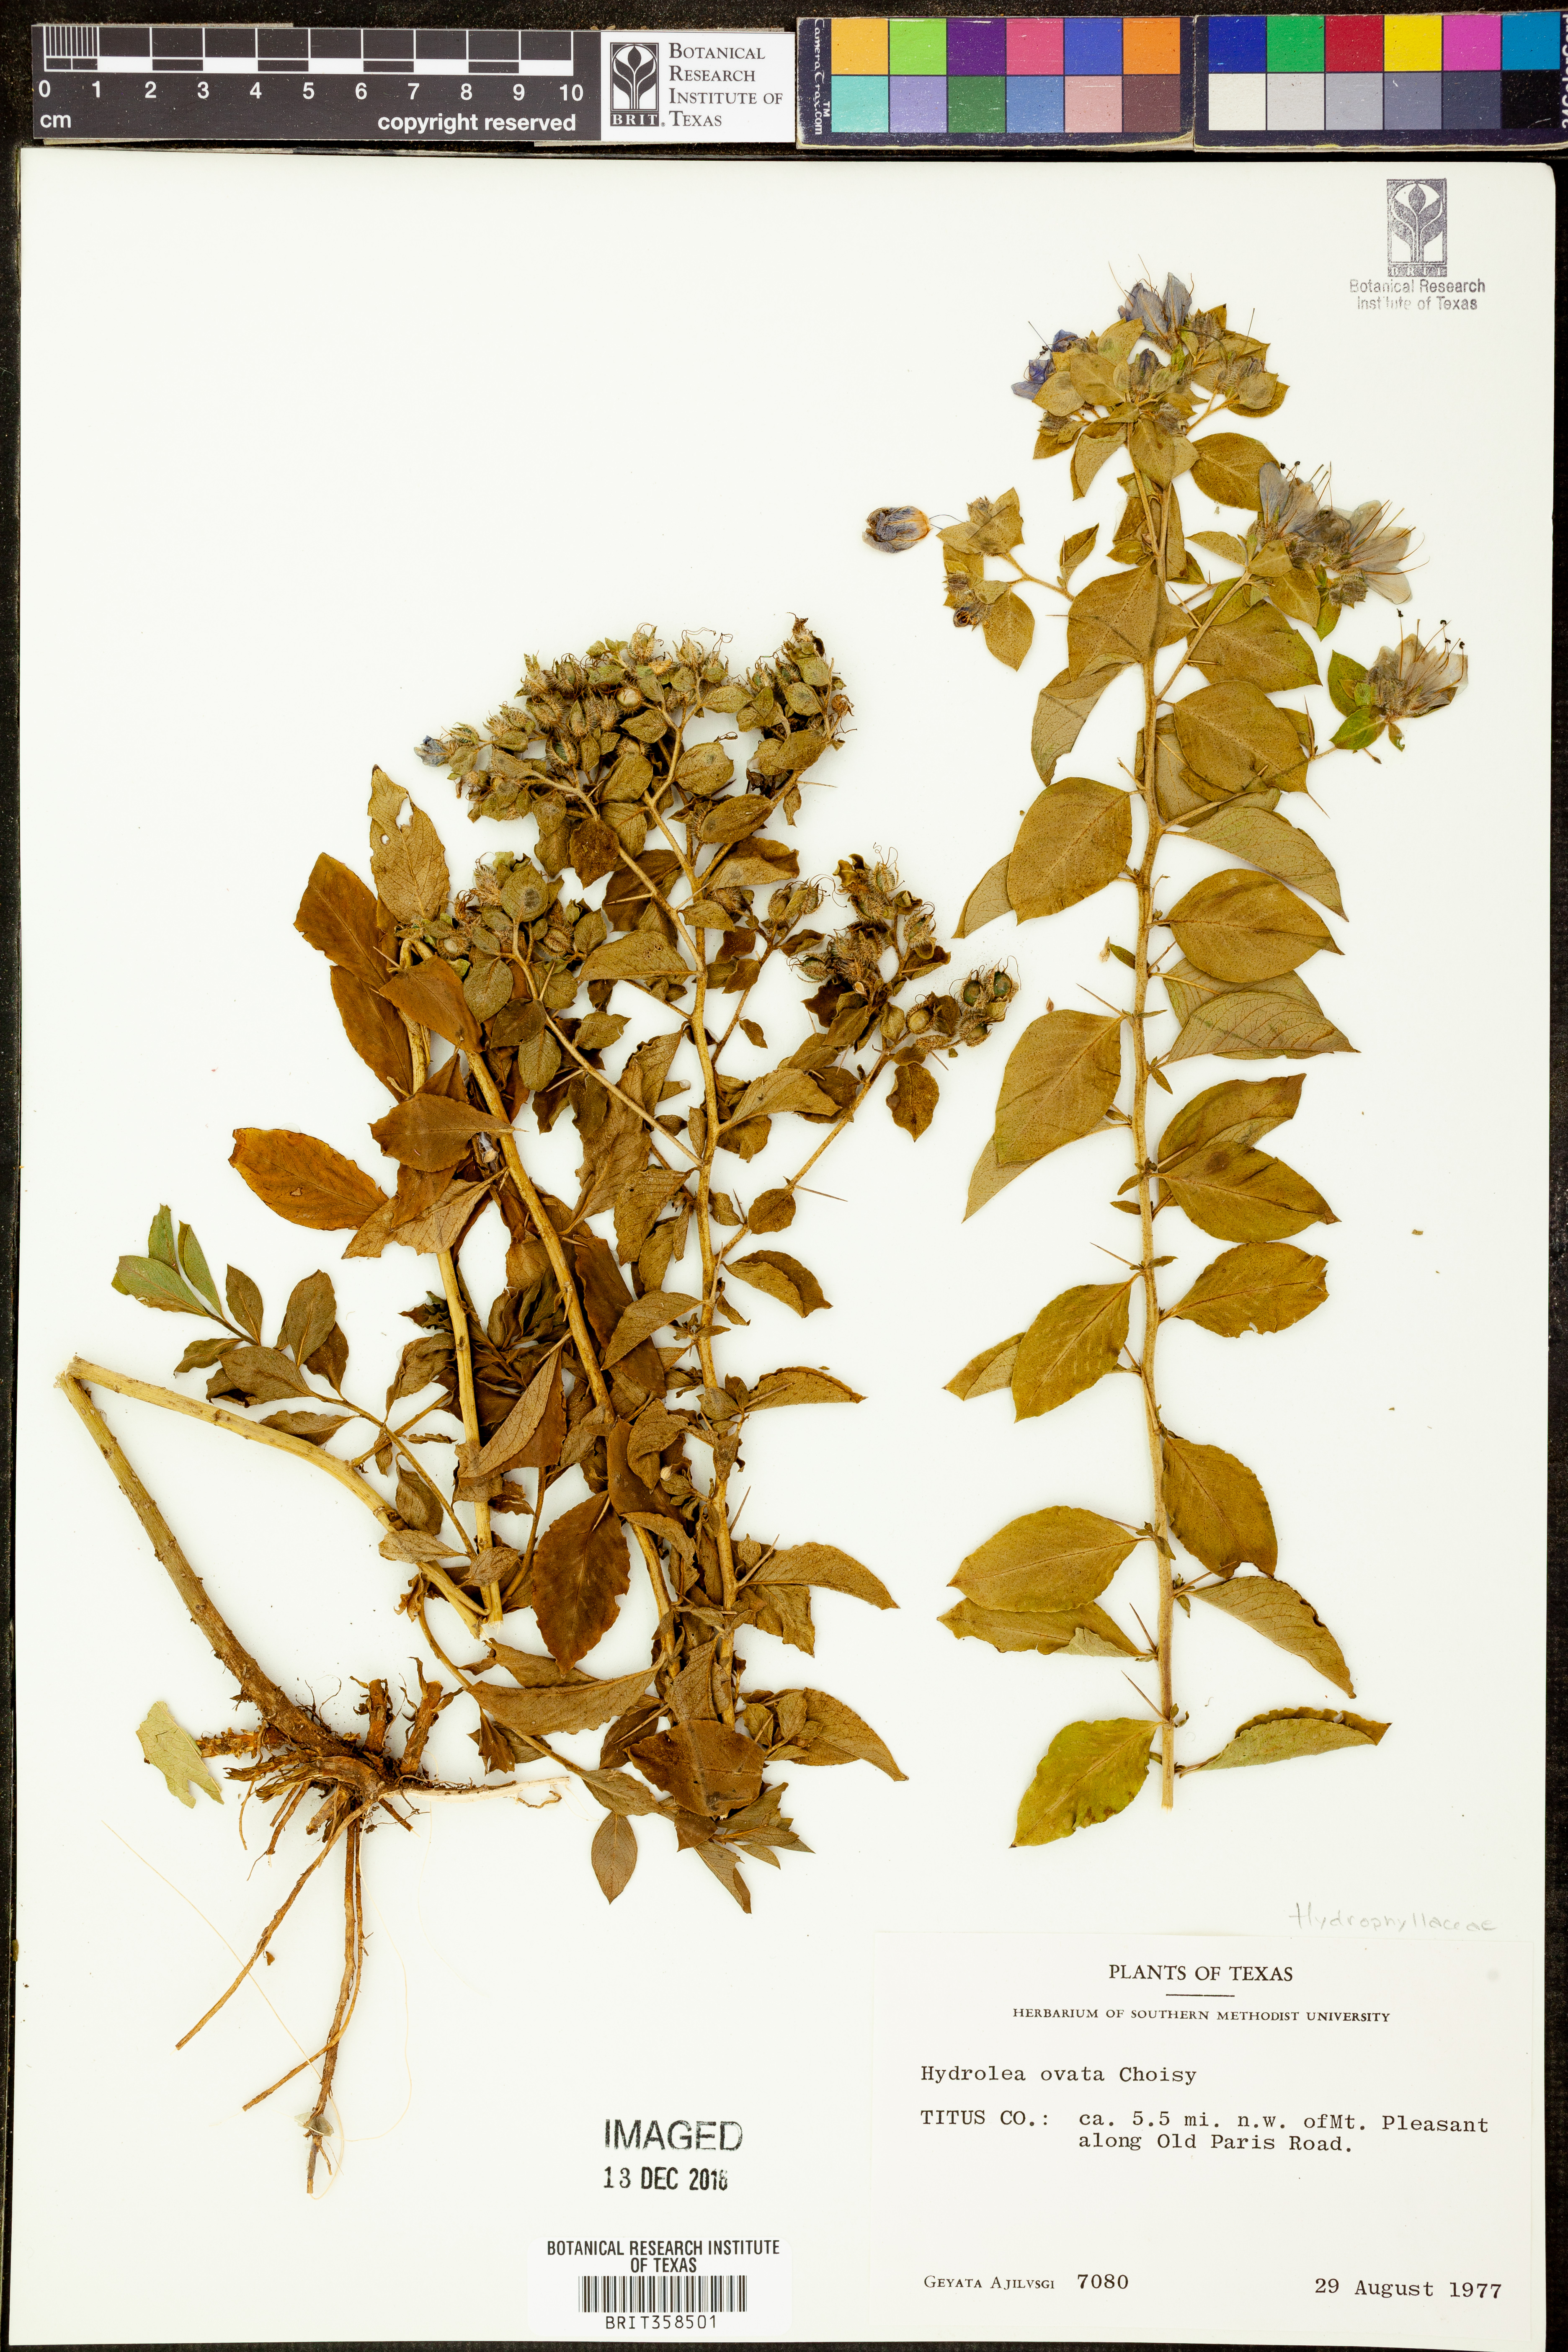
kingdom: Plantae
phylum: Tracheophyta
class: Magnoliopsida
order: Solanales
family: Hydroleaceae
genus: Hydrolea
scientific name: Hydrolea ovata
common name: Ovate false fiddleleaf
